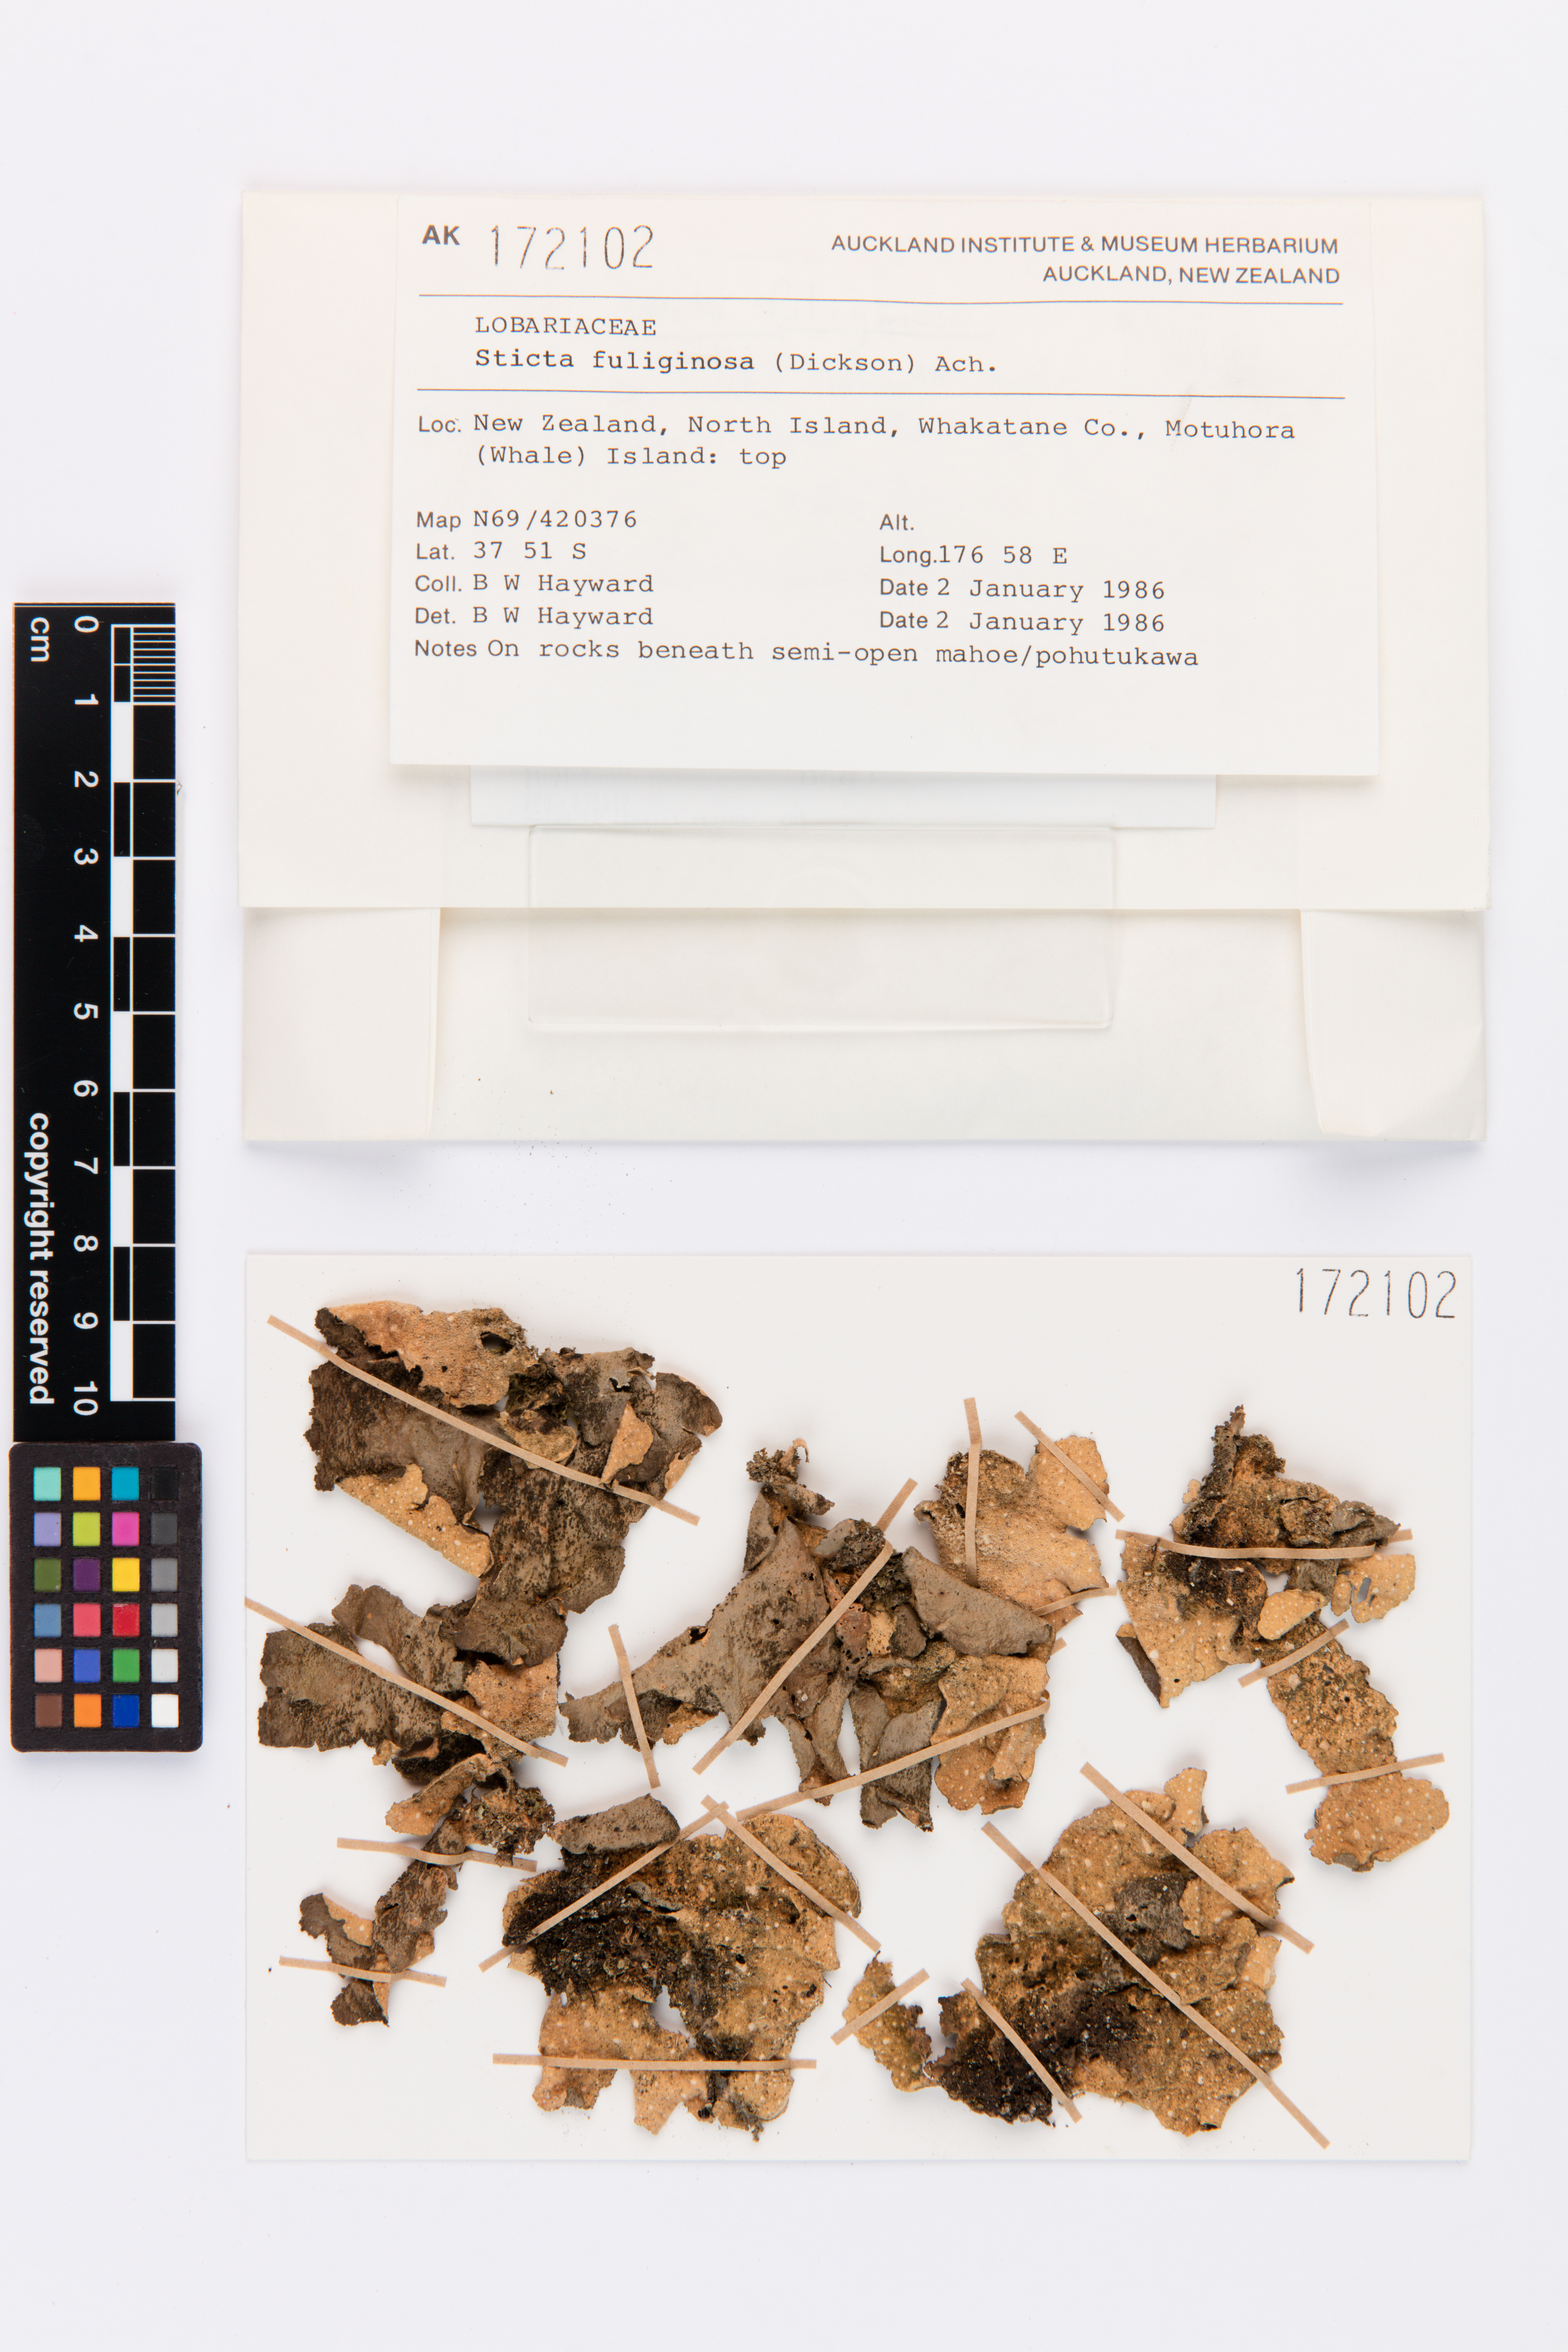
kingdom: Fungi
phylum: Ascomycota
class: Lecanoromycetes
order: Peltigerales
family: Lobariaceae
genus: Sticta
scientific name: Sticta fuliginosa
